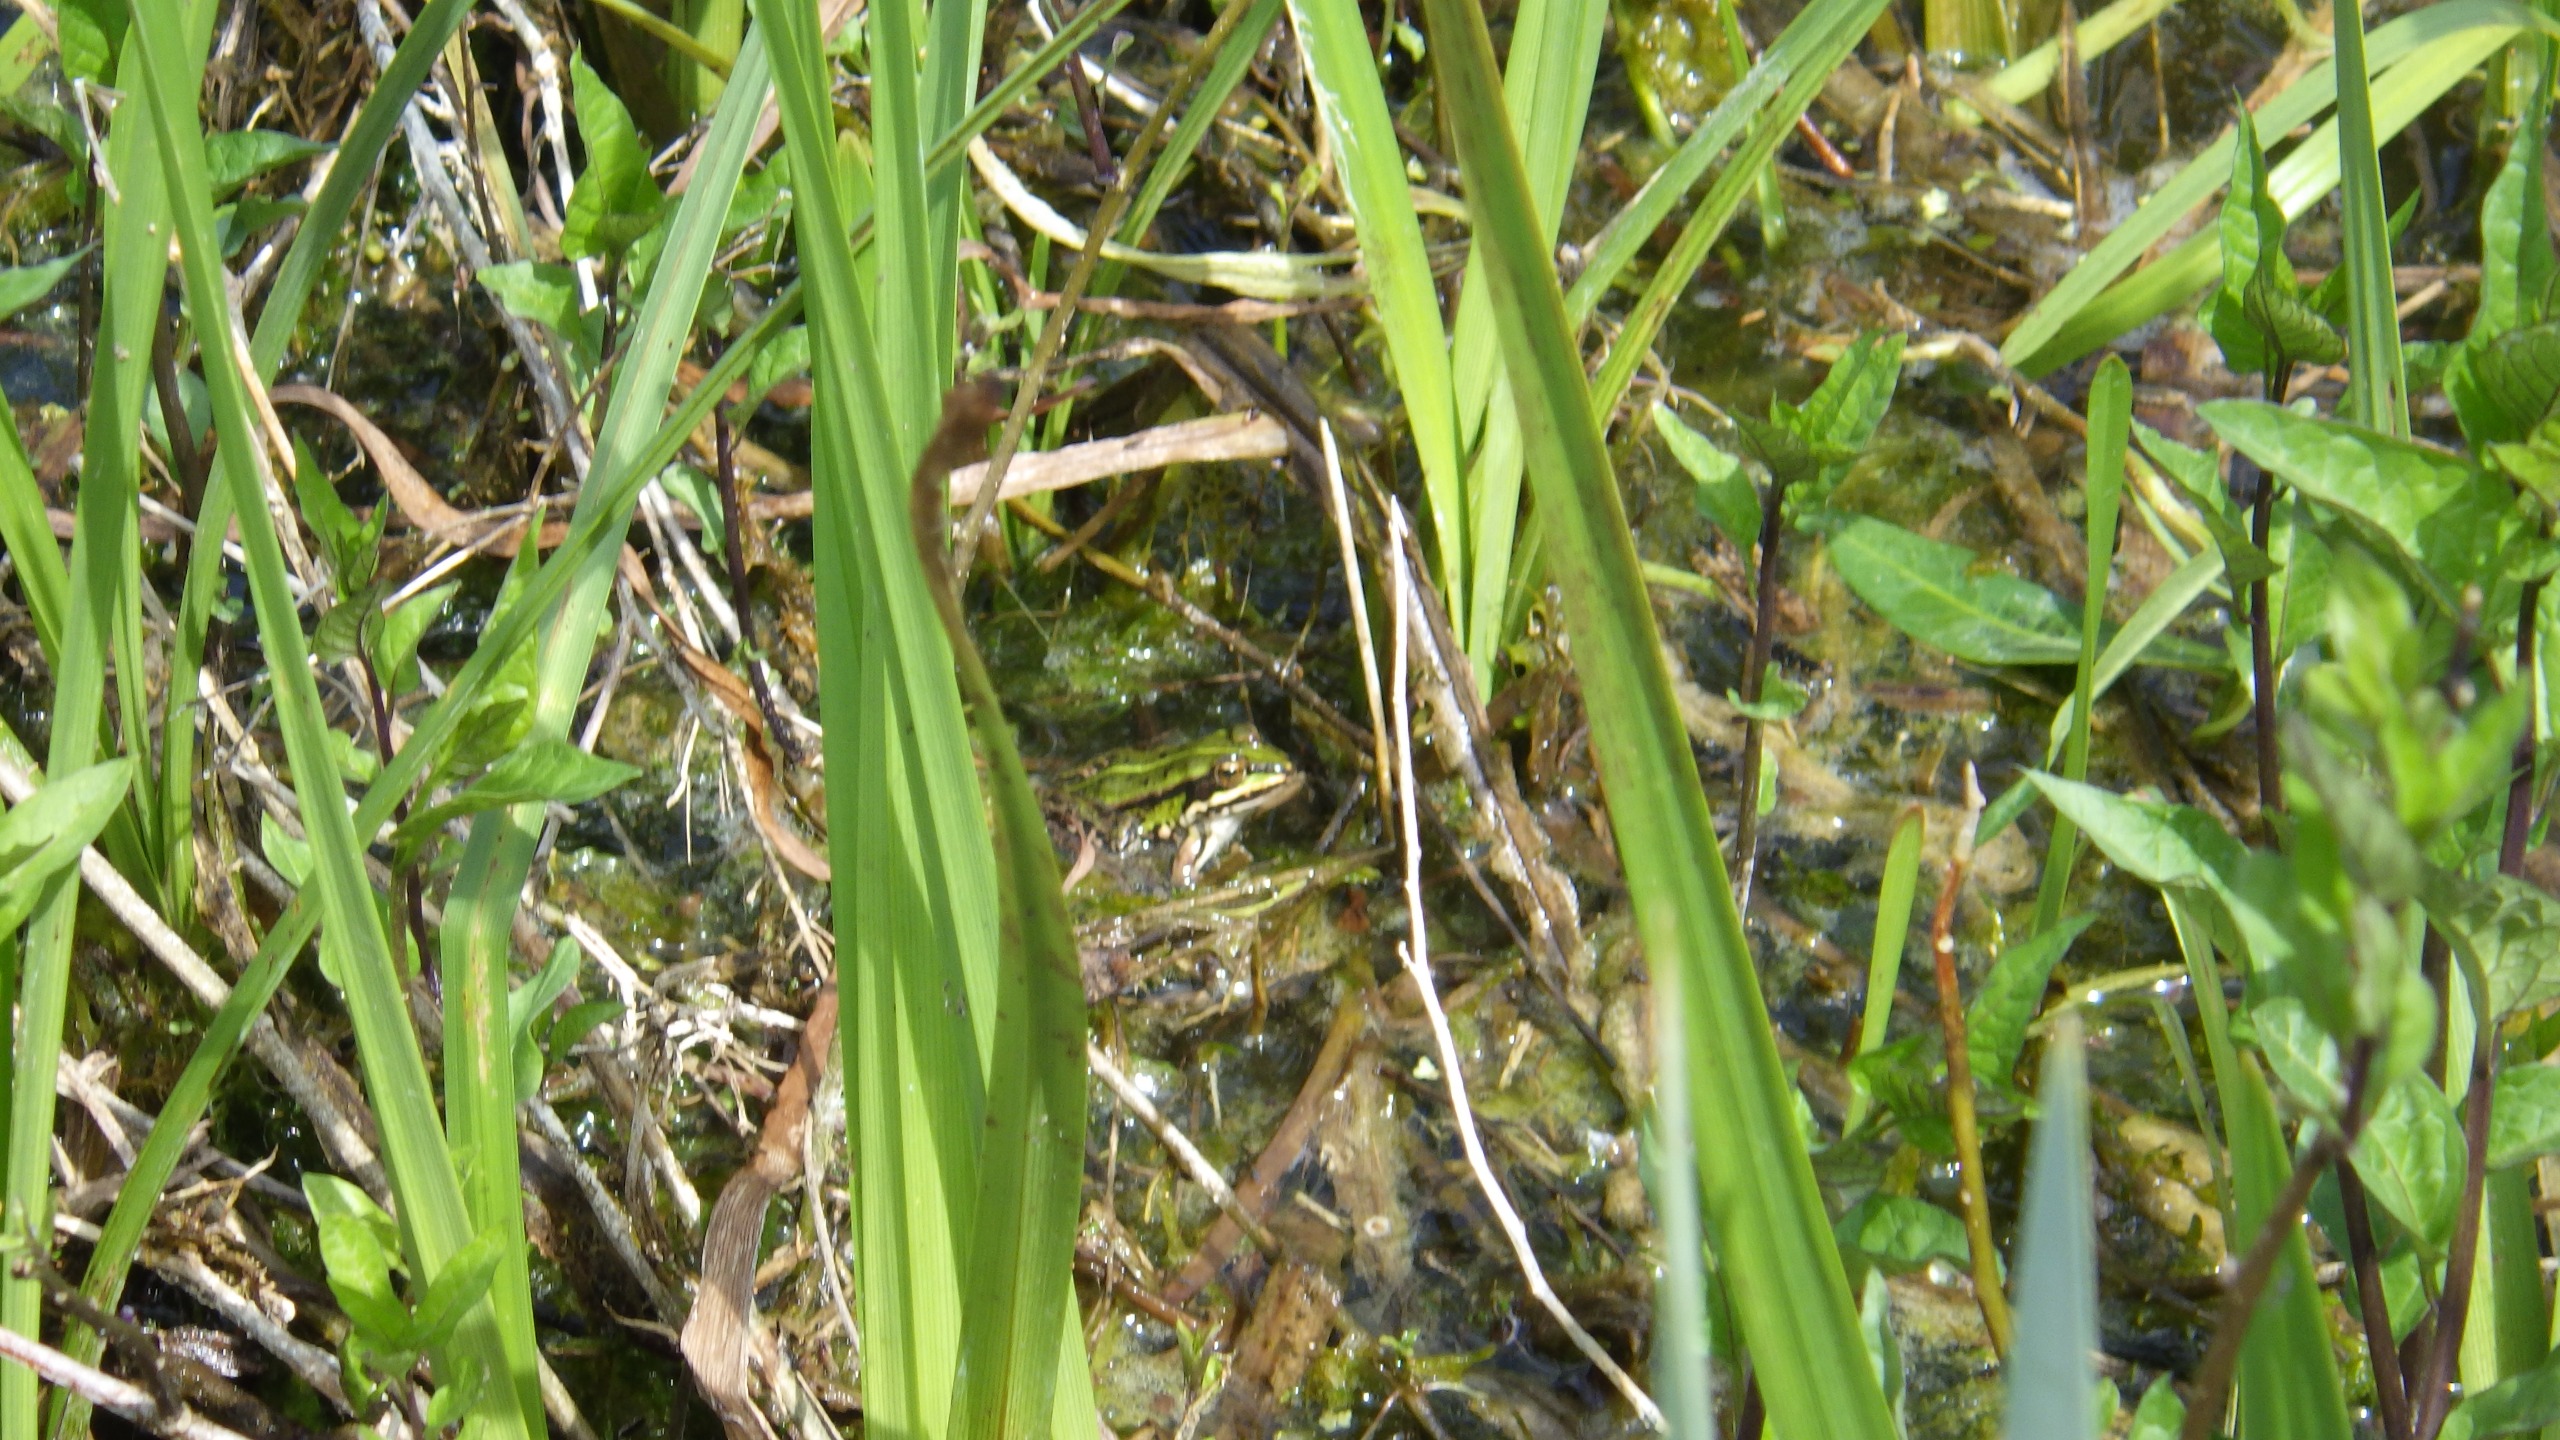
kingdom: Animalia
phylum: Chordata
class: Amphibia
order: Anura
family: Ranidae
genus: Pelophylax
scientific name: Pelophylax lessonae
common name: Grøn frø
